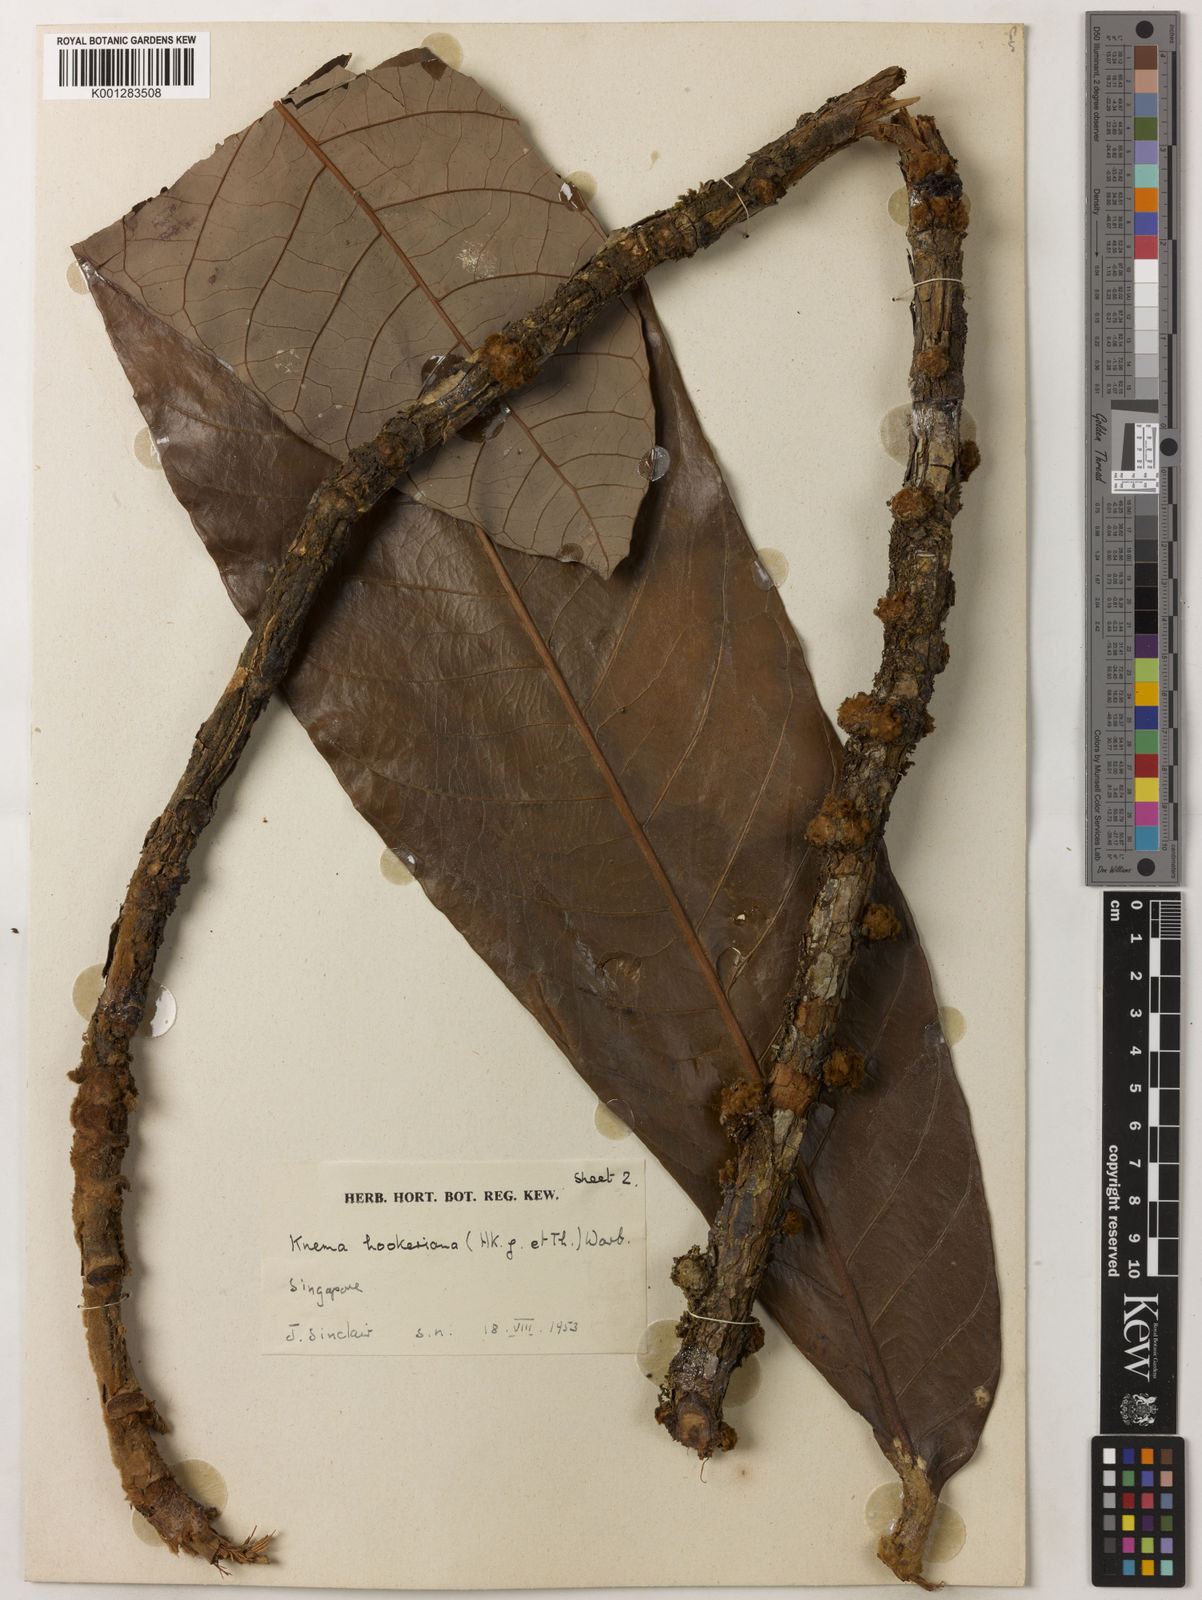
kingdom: Plantae
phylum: Tracheophyta
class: Magnoliopsida
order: Magnoliales
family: Myristicaceae
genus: Knema
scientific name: Knema hookeriana
